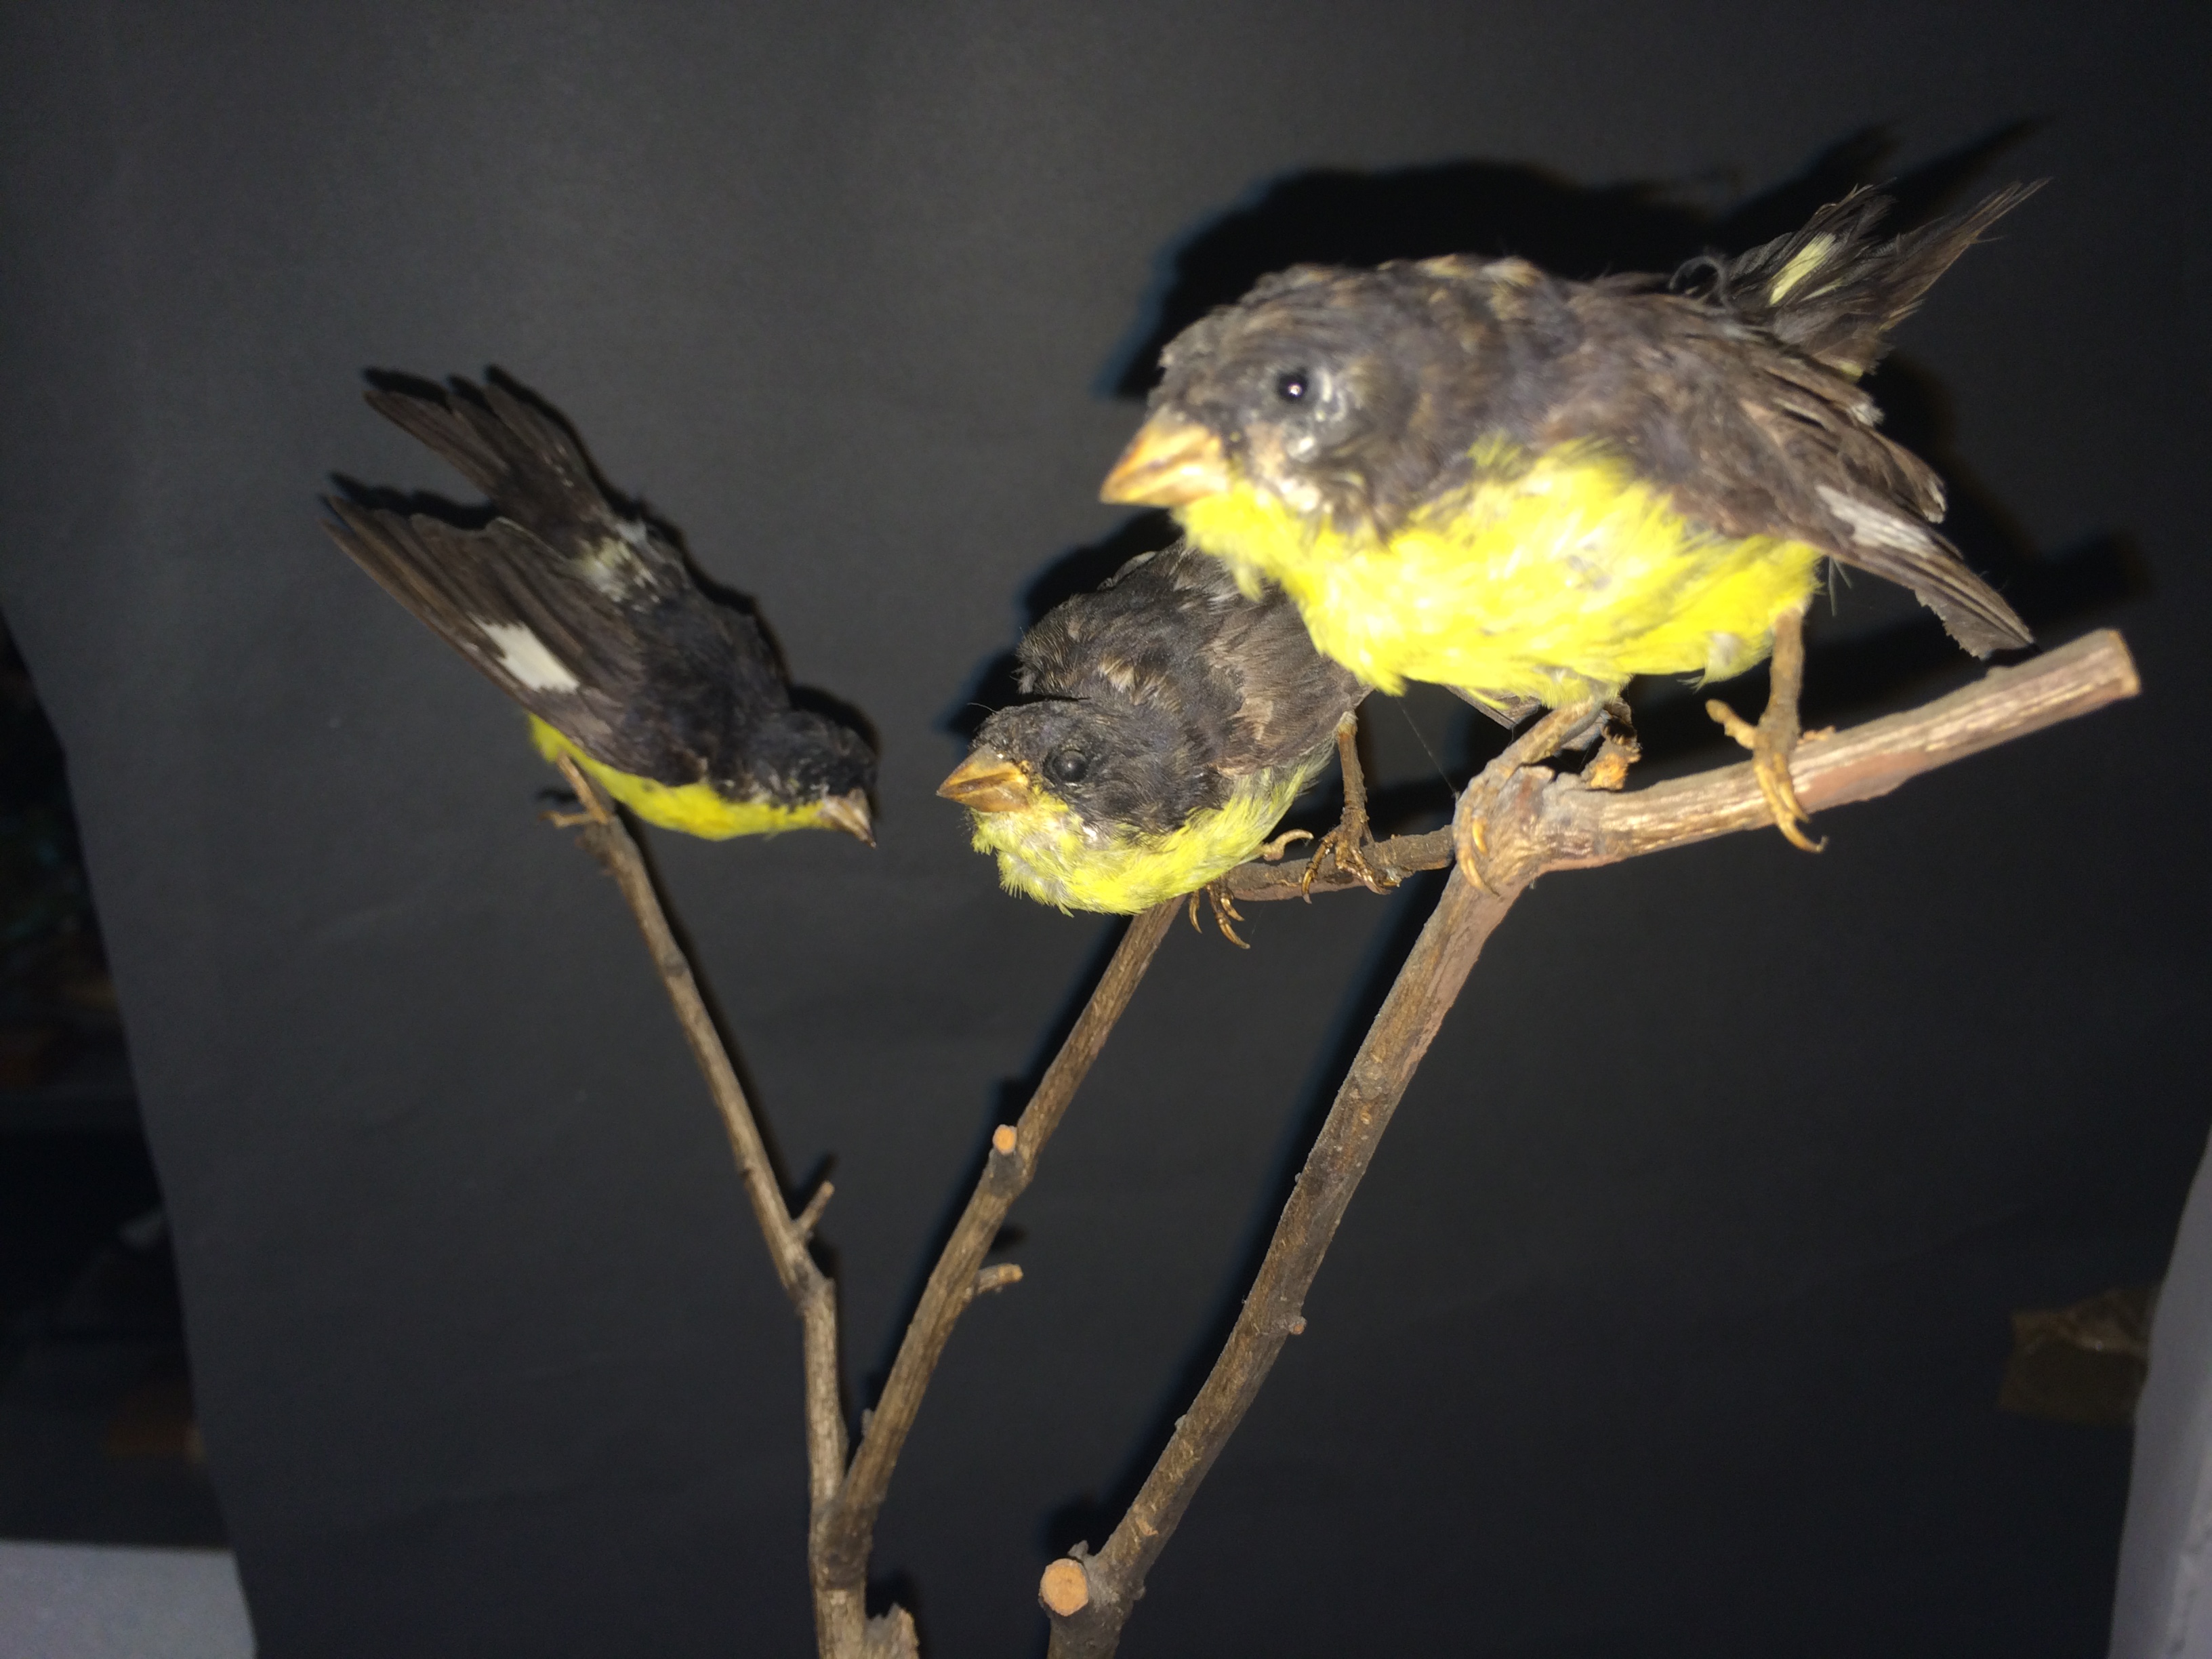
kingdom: Animalia
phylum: Chordata
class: Aves
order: Passeriformes
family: Fringillidae
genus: Spinus
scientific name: Spinus psaltria
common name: Lesser goldfinch
